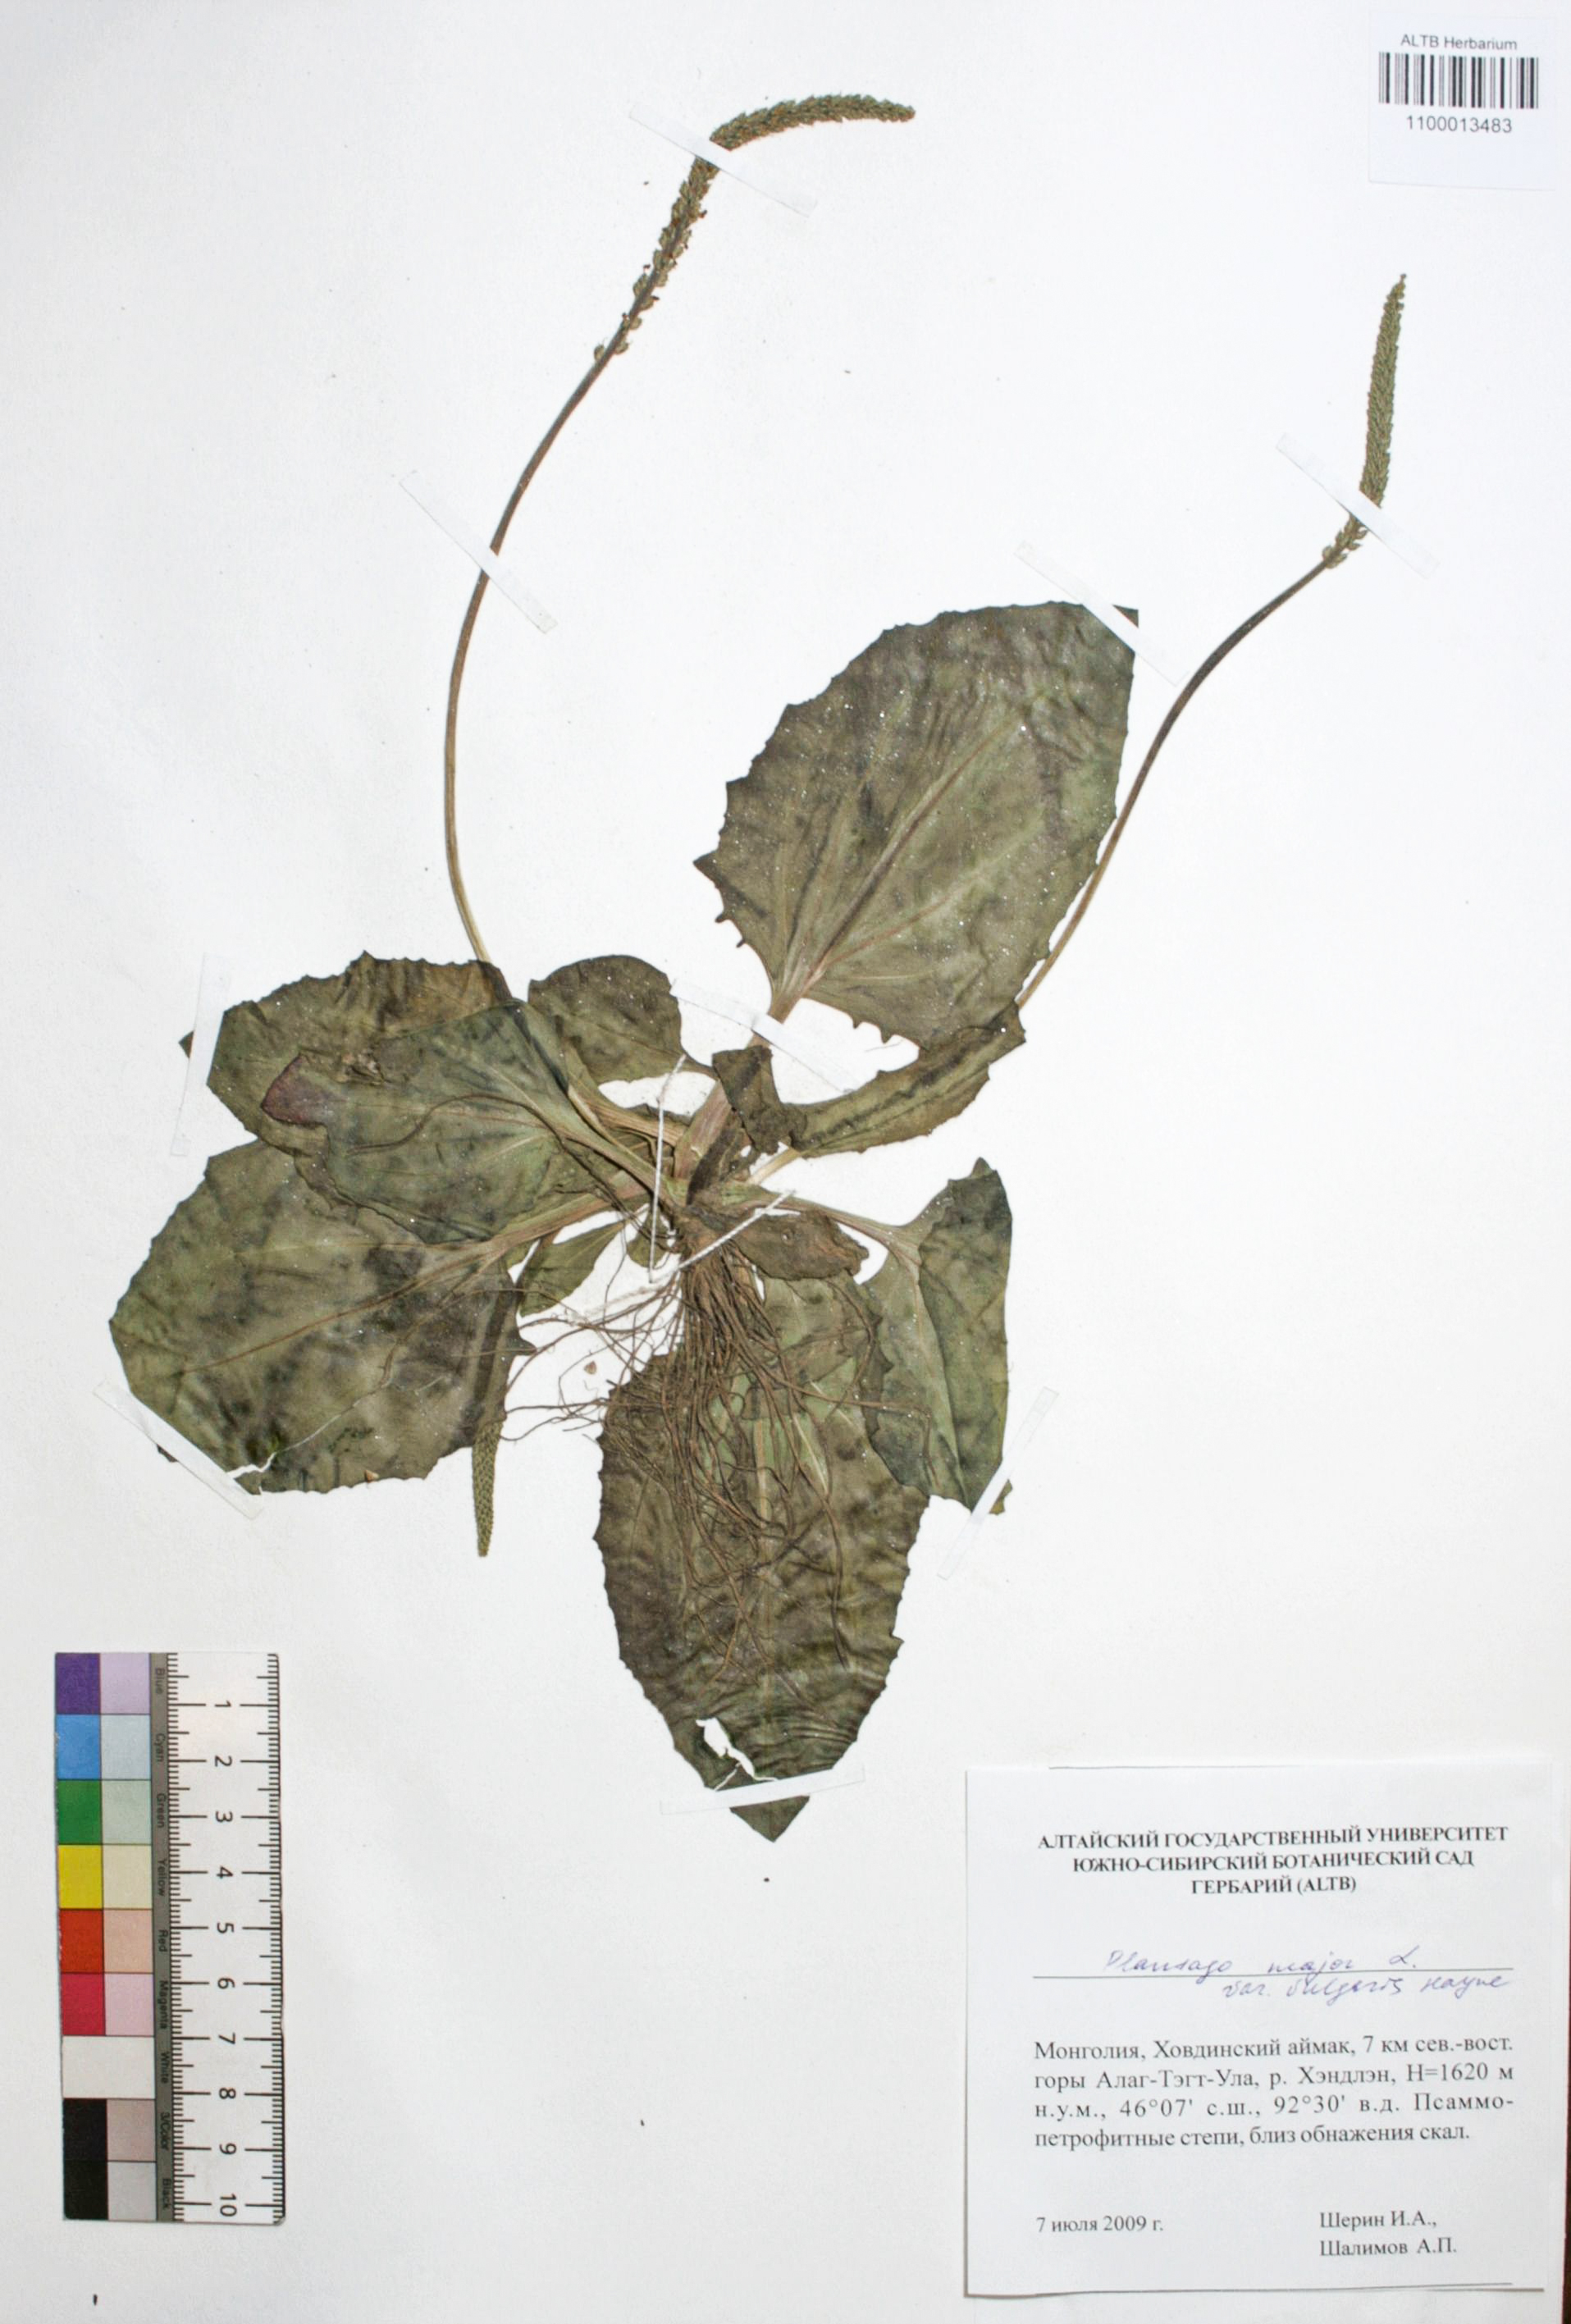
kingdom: Plantae
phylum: Tracheophyta
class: Magnoliopsida
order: Lamiales
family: Plantaginaceae
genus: Plantago
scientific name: Plantago major
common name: Common plantain
